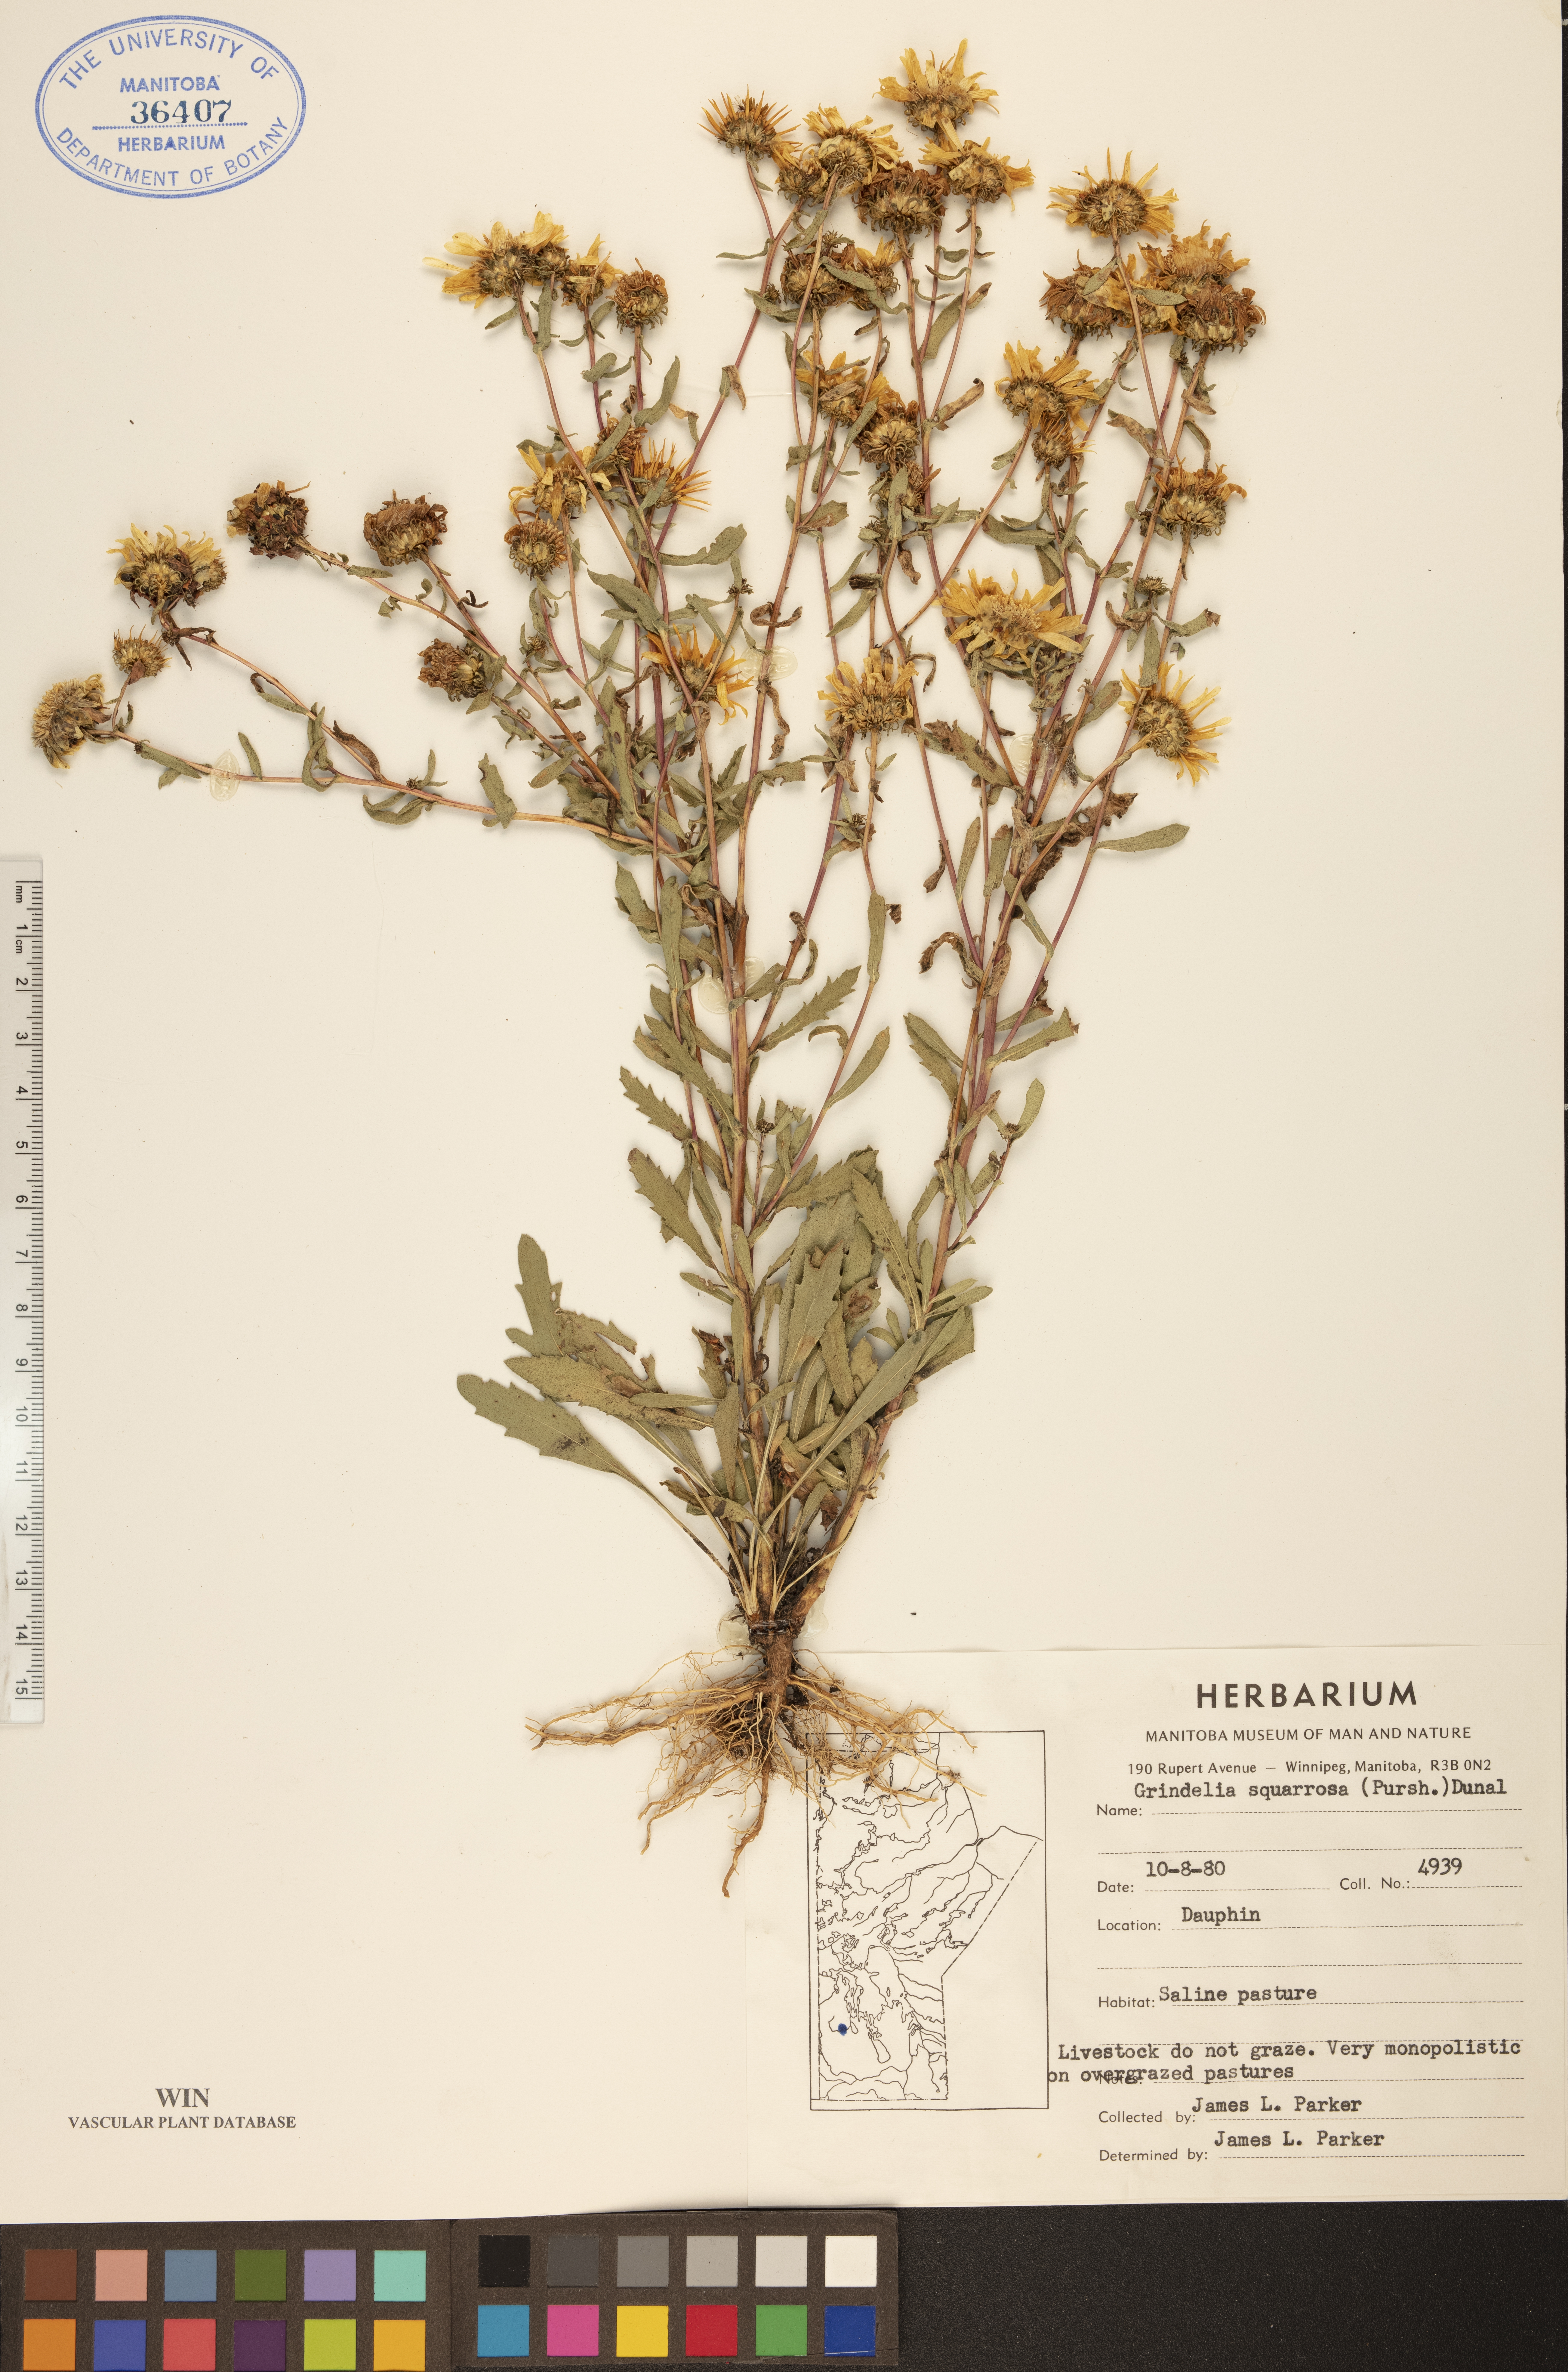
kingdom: Plantae
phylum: Tracheophyta
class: Magnoliopsida
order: Asterales
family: Asteraceae
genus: Grindelia
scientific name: Grindelia squarrosa
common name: Curly-cup gumweed
